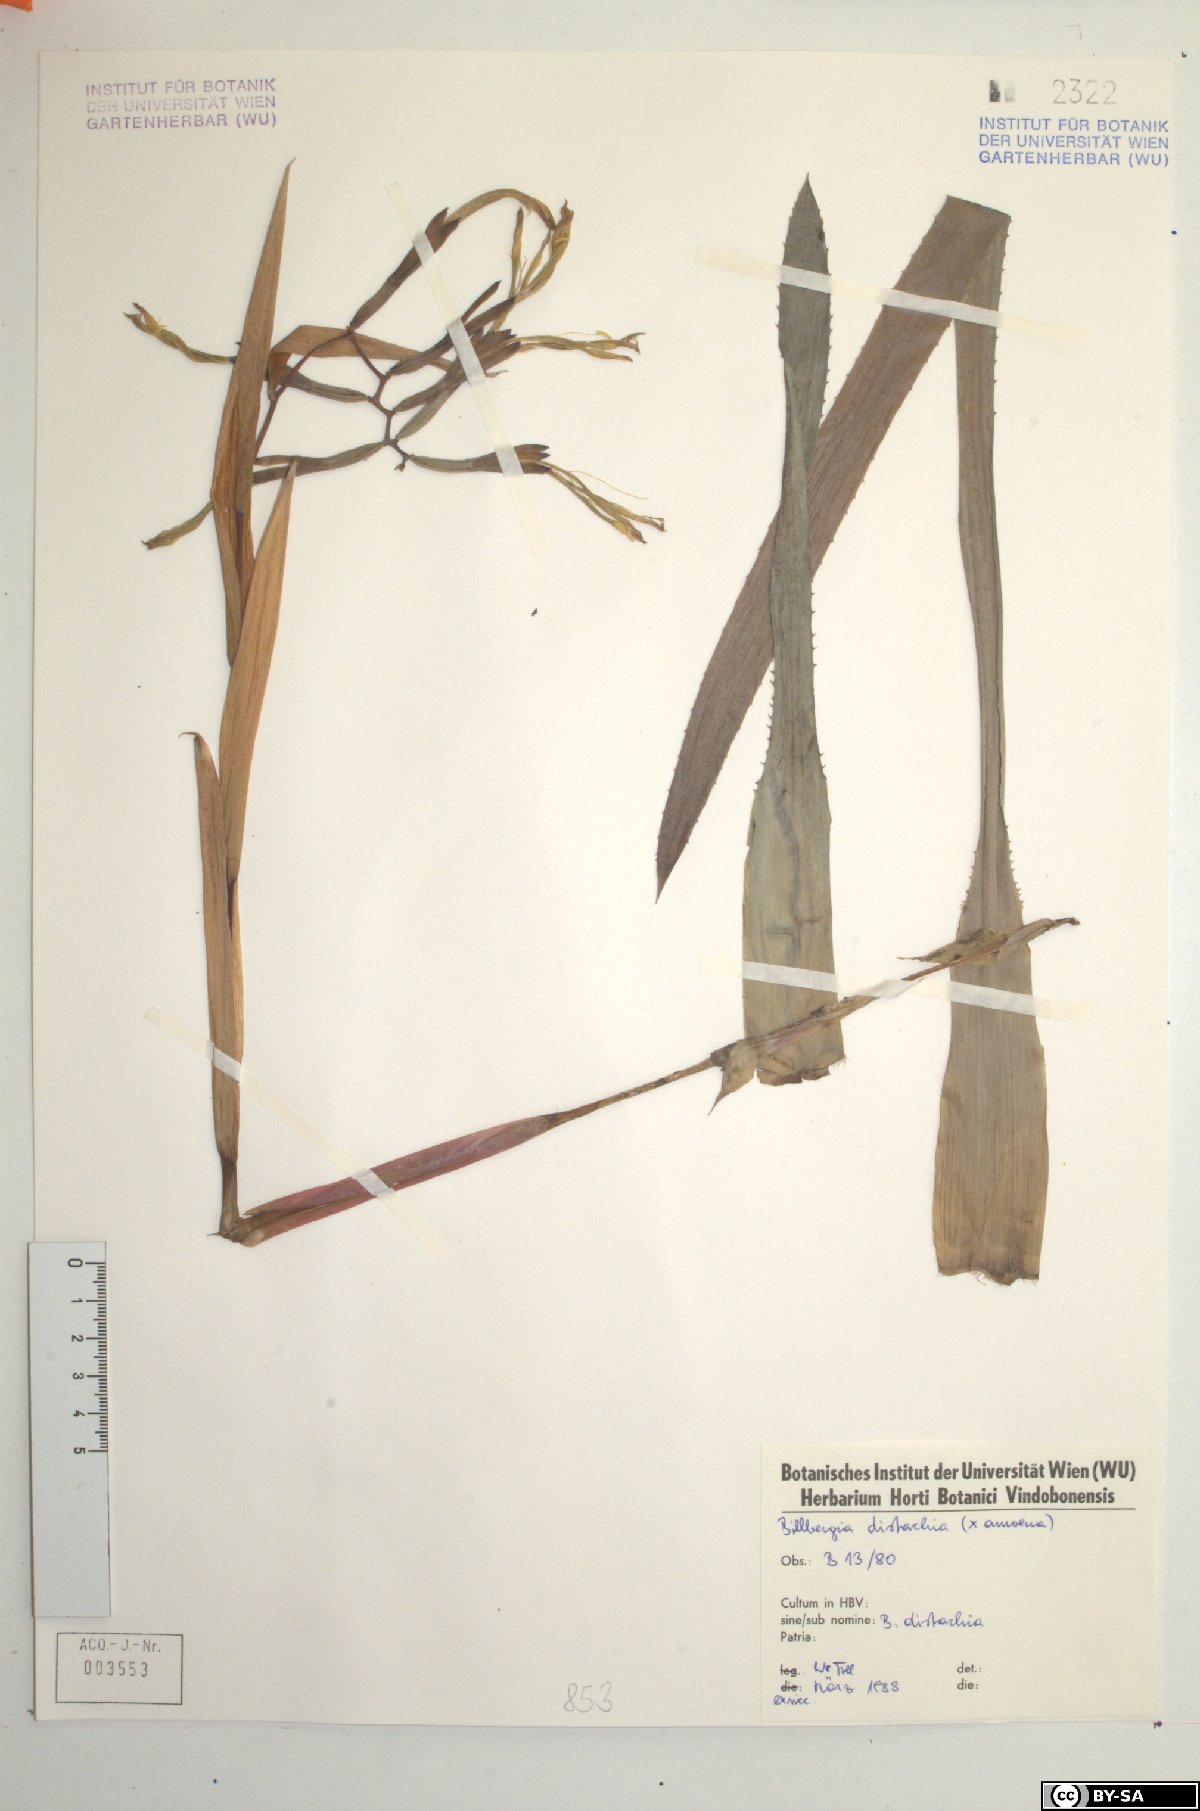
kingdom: Plantae
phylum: Tracheophyta
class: Liliopsida
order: Poales
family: Bromeliaceae
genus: Billbergia
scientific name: Billbergia distachia
